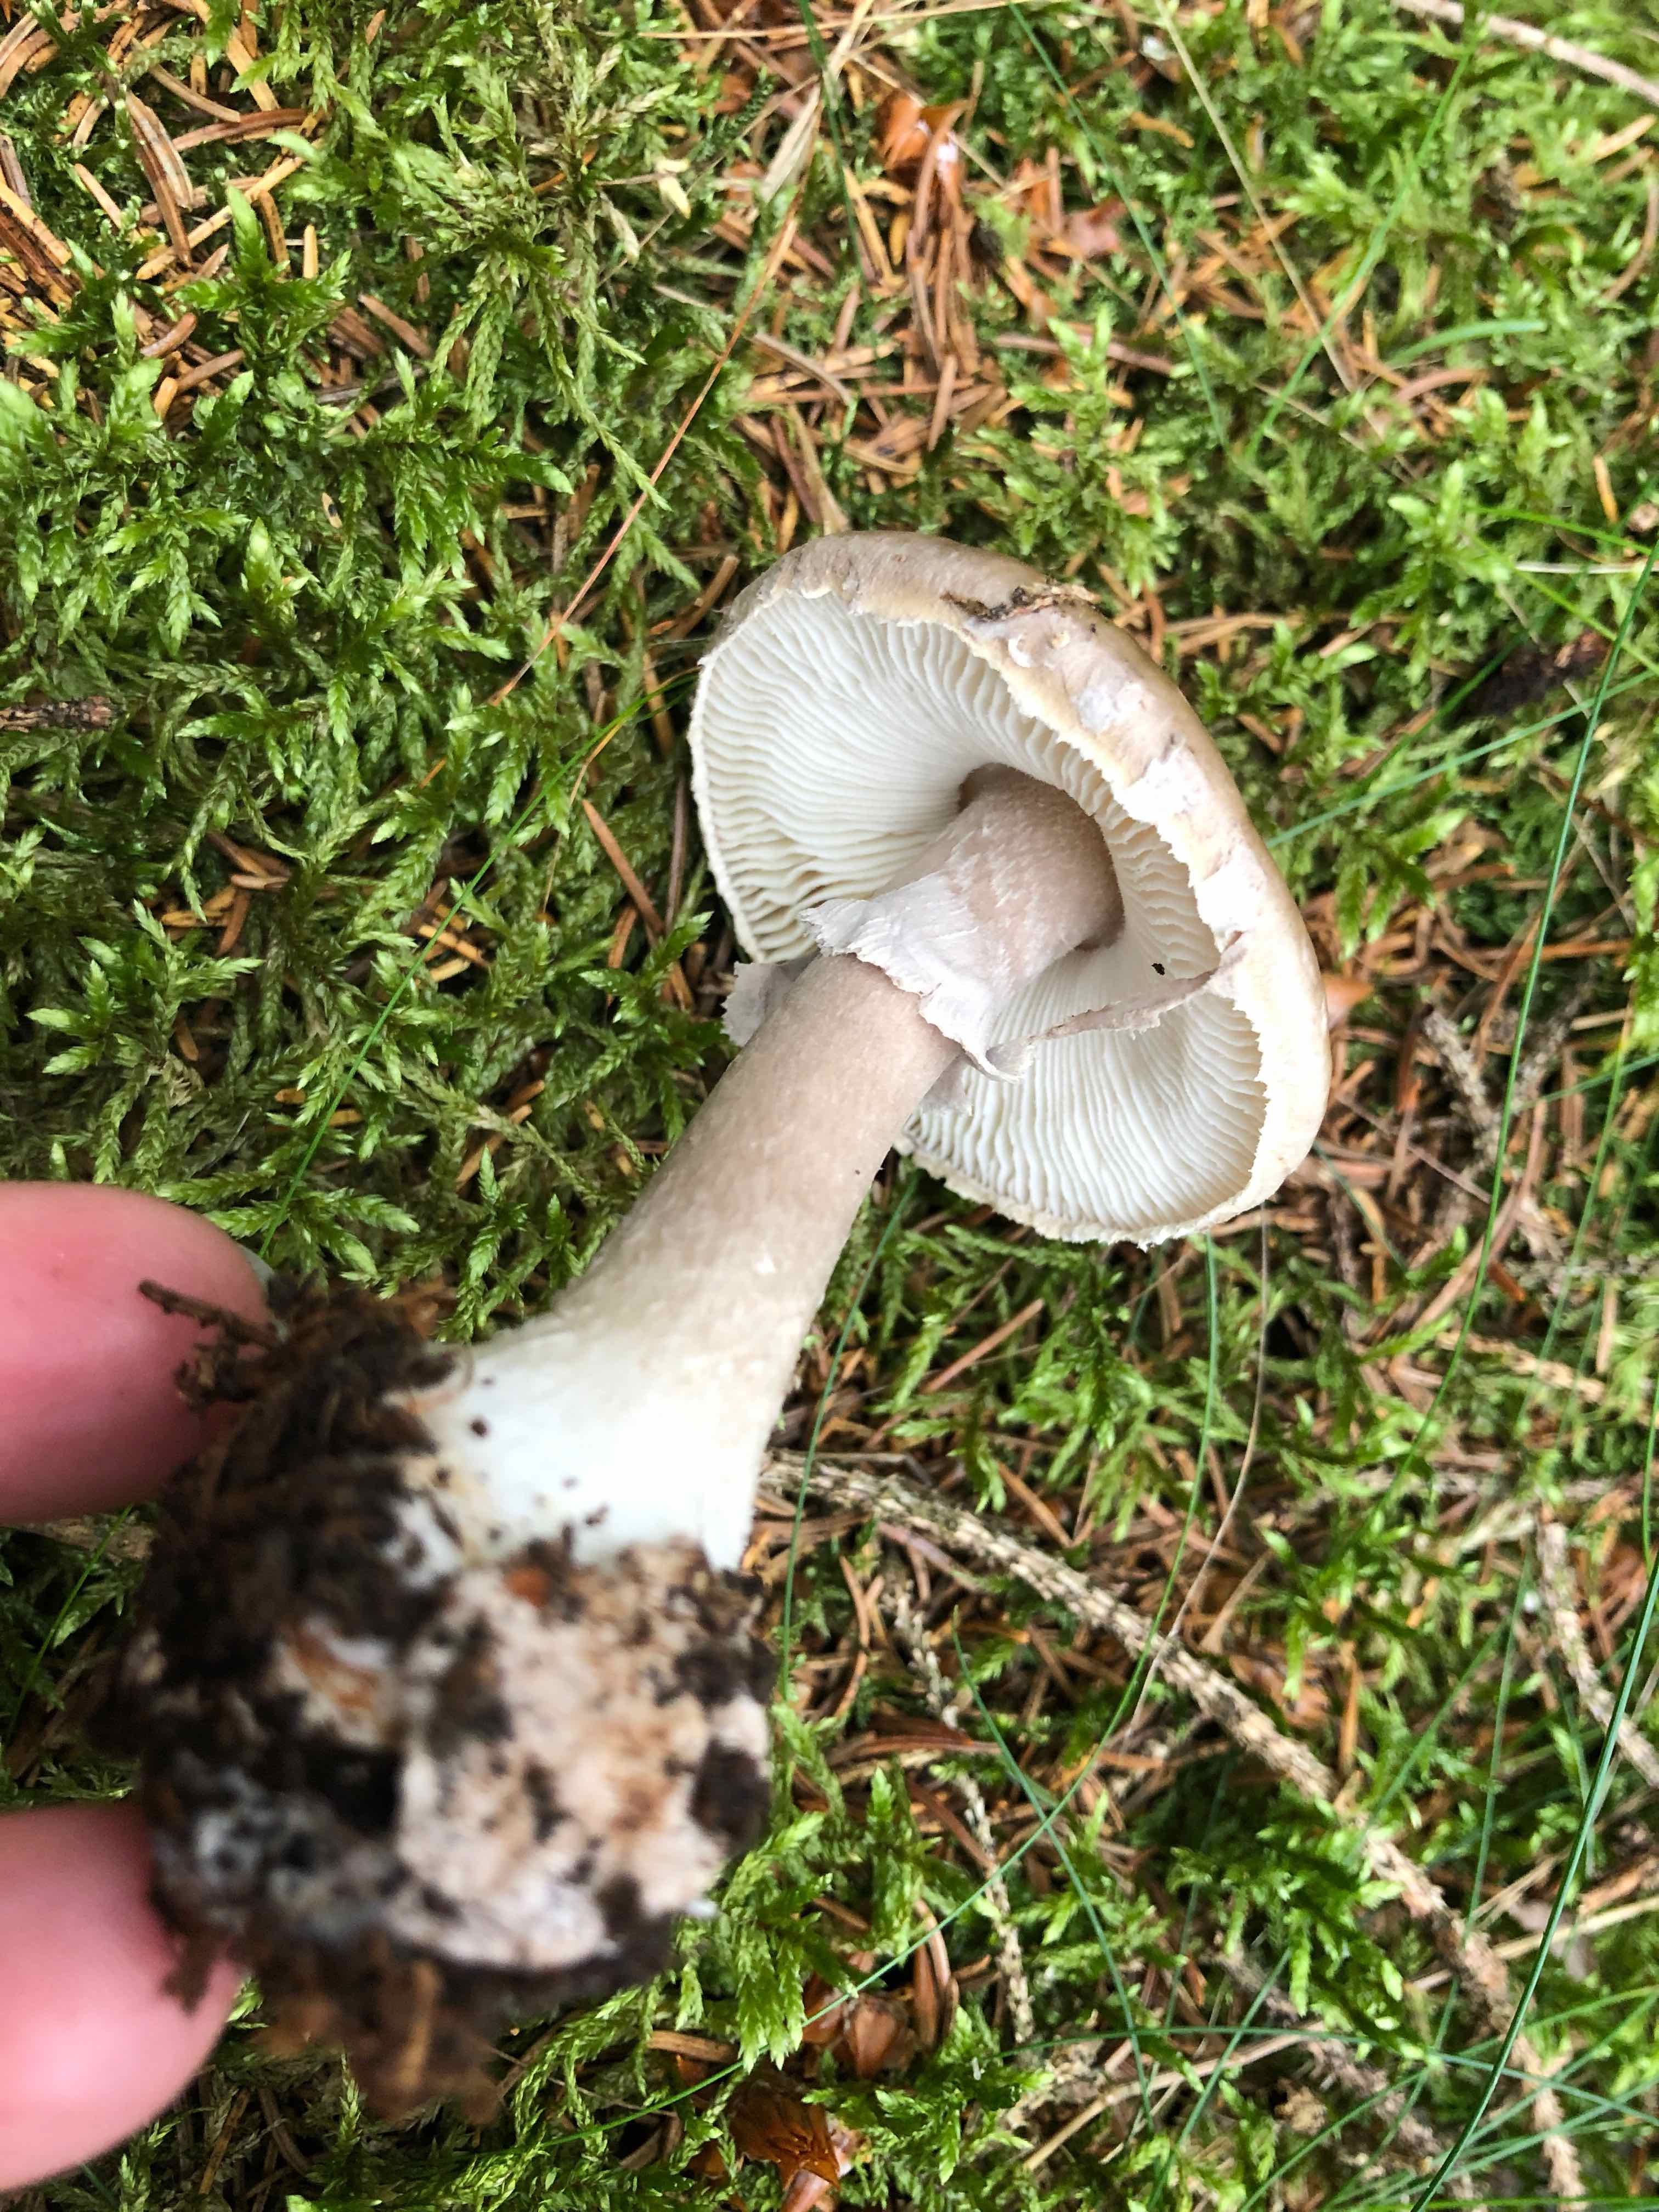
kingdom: Fungi
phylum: Basidiomycota
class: Agaricomycetes
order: Agaricales
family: Amanitaceae
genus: Amanita
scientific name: Amanita porphyria
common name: porfyr-fluesvamp
